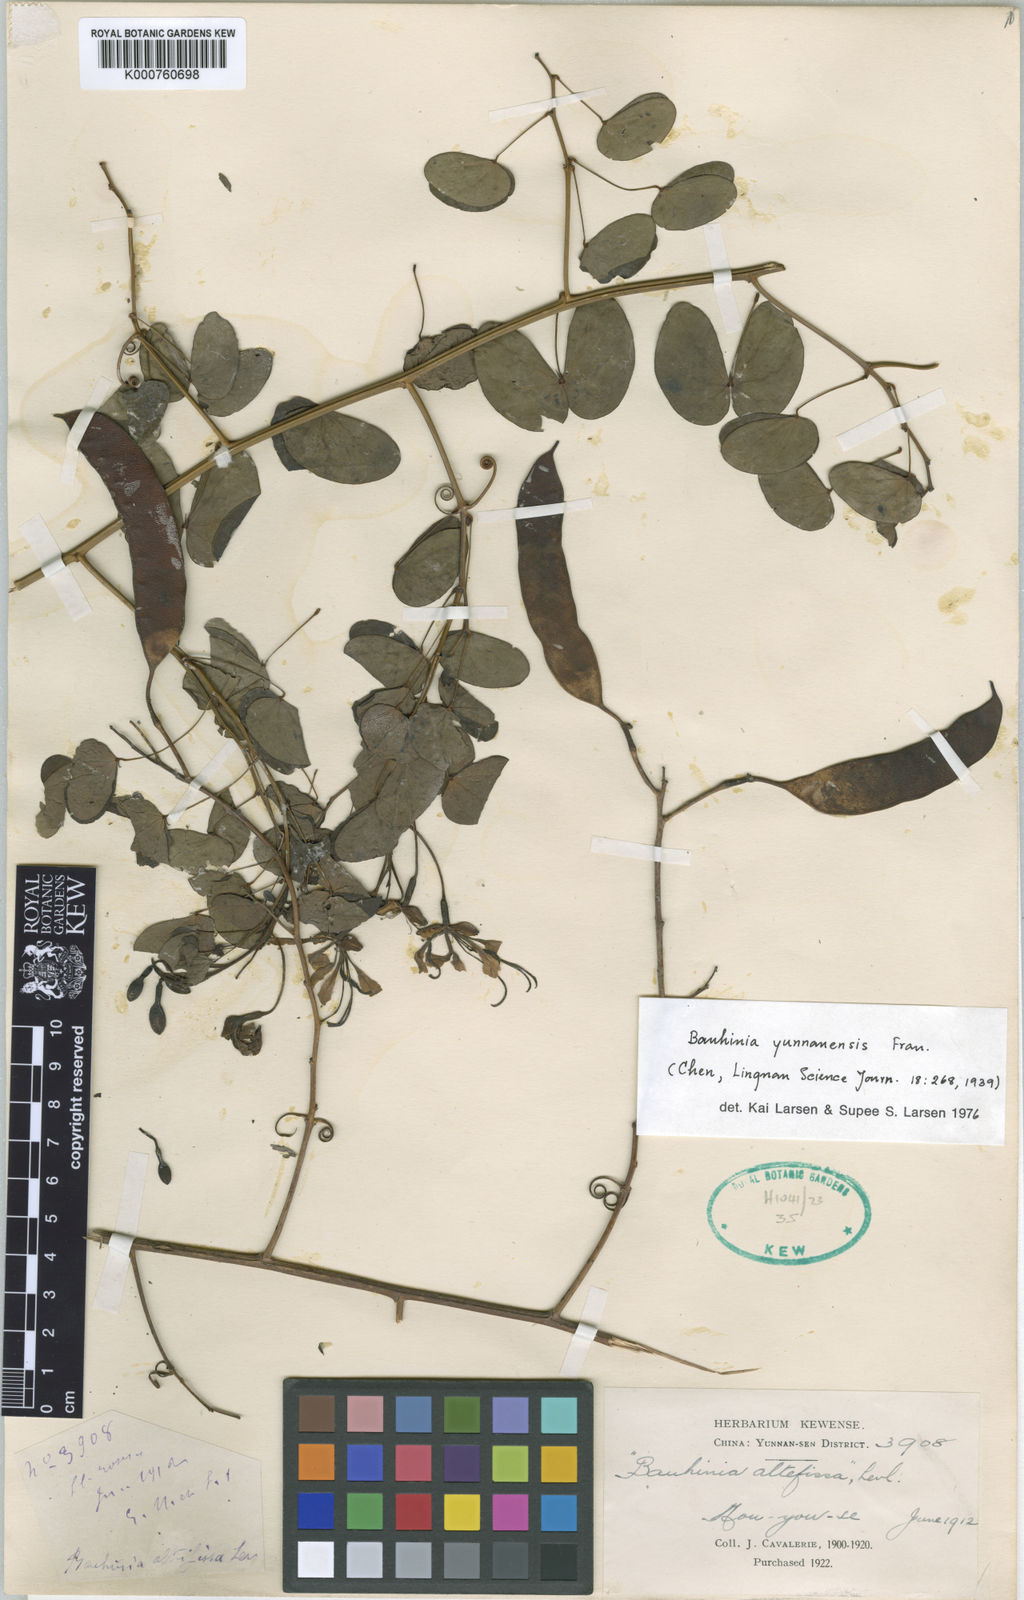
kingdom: Plantae
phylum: Tracheophyta
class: Magnoliopsida
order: Fabales
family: Fabaceae
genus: Phanera
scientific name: Phanera yunnanensis
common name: Phanera
